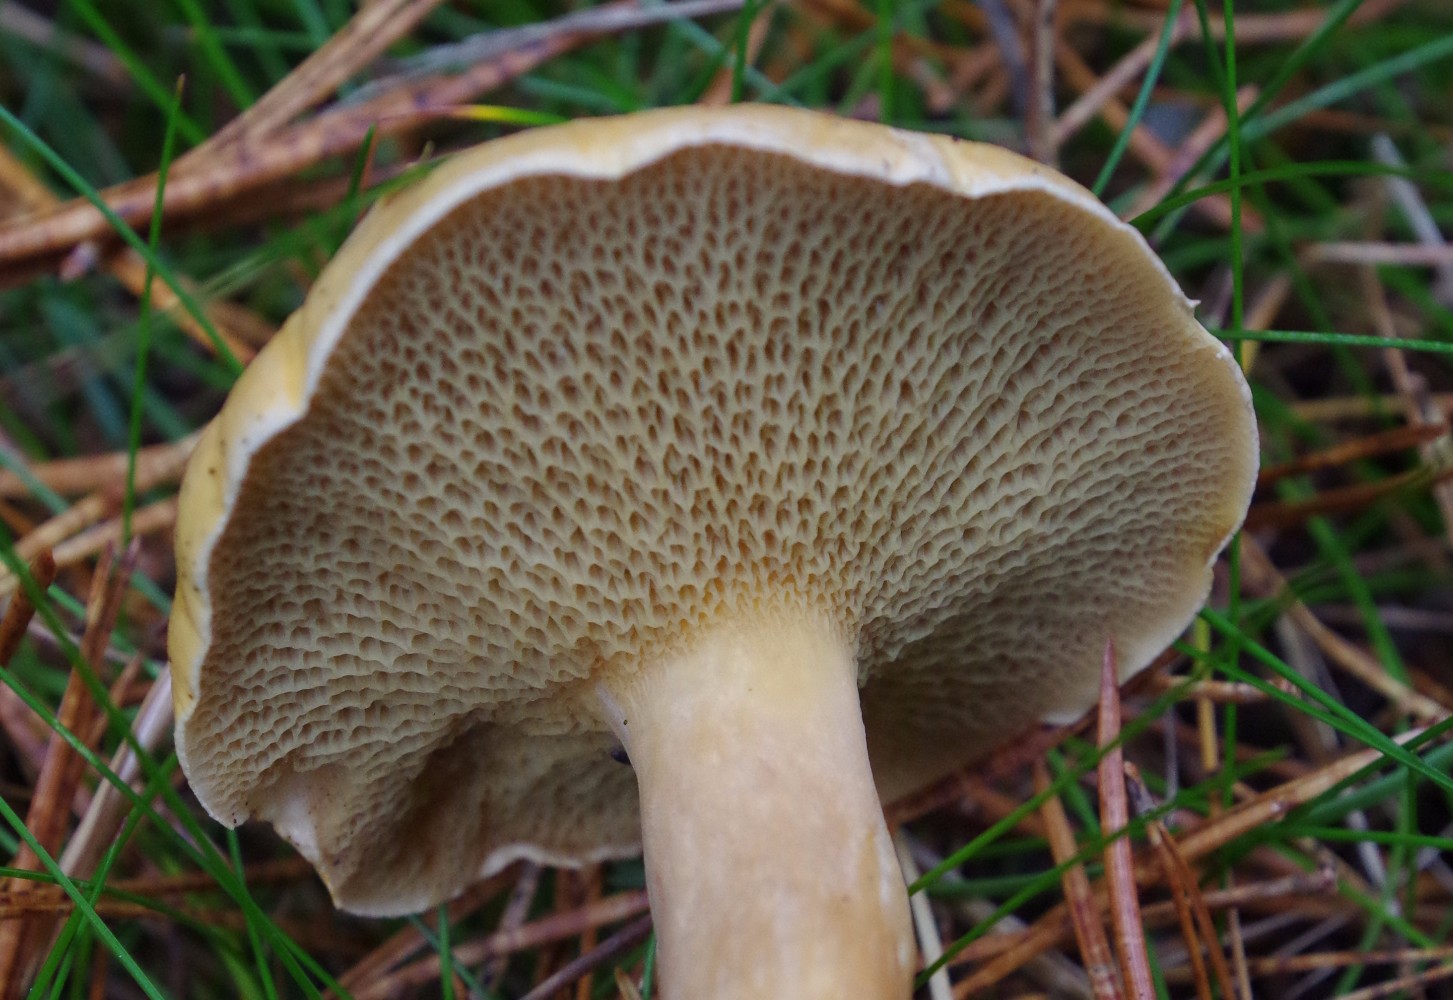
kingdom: Fungi
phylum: Basidiomycota
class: Agaricomycetes
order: Boletales
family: Suillaceae
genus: Suillus
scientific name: Suillus bovinus
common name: grovporet slimrørhat
